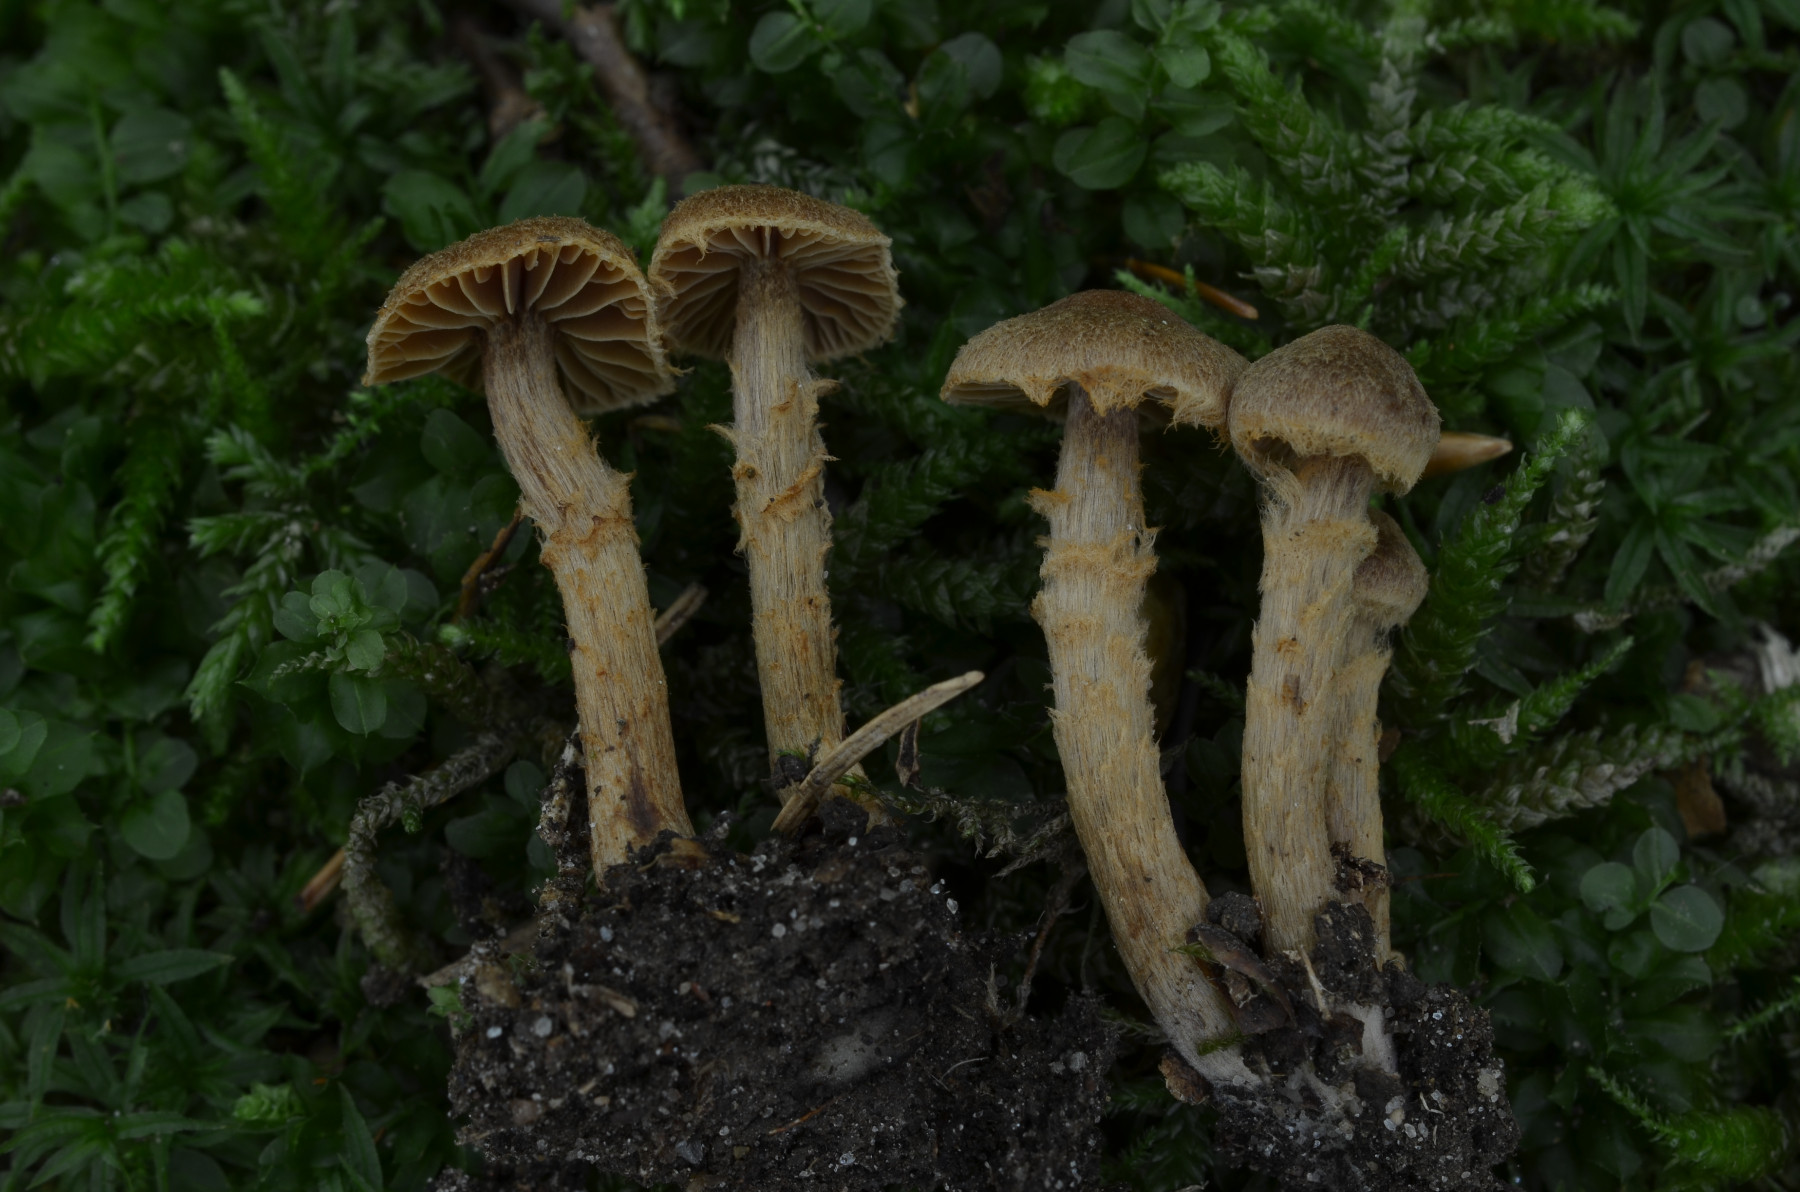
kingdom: Fungi
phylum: Basidiomycota
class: Agaricomycetes
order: Agaricales
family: Cortinariaceae
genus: Cortinarius
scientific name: Cortinarius castaneopallidus
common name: bronzetrævlet slørhat
